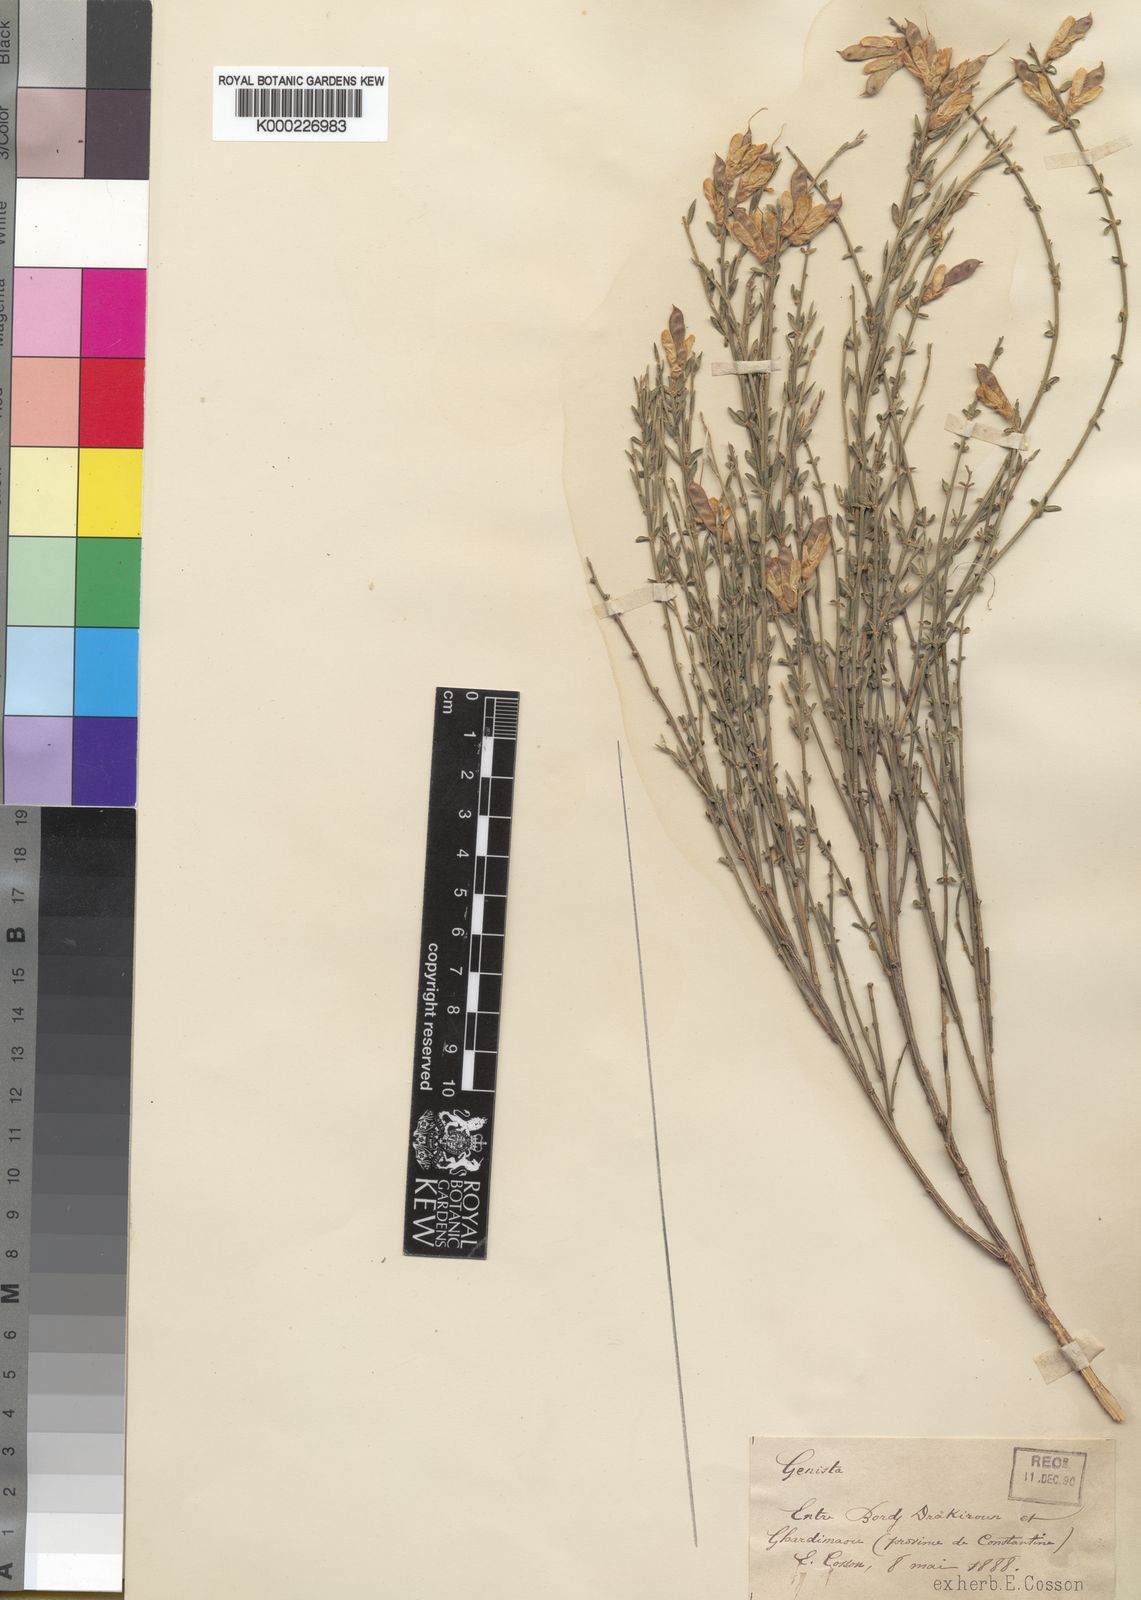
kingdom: Plantae
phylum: Tracheophyta
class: Magnoliopsida
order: Fabales
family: Fabaceae
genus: Genista
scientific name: Genista cinerea
